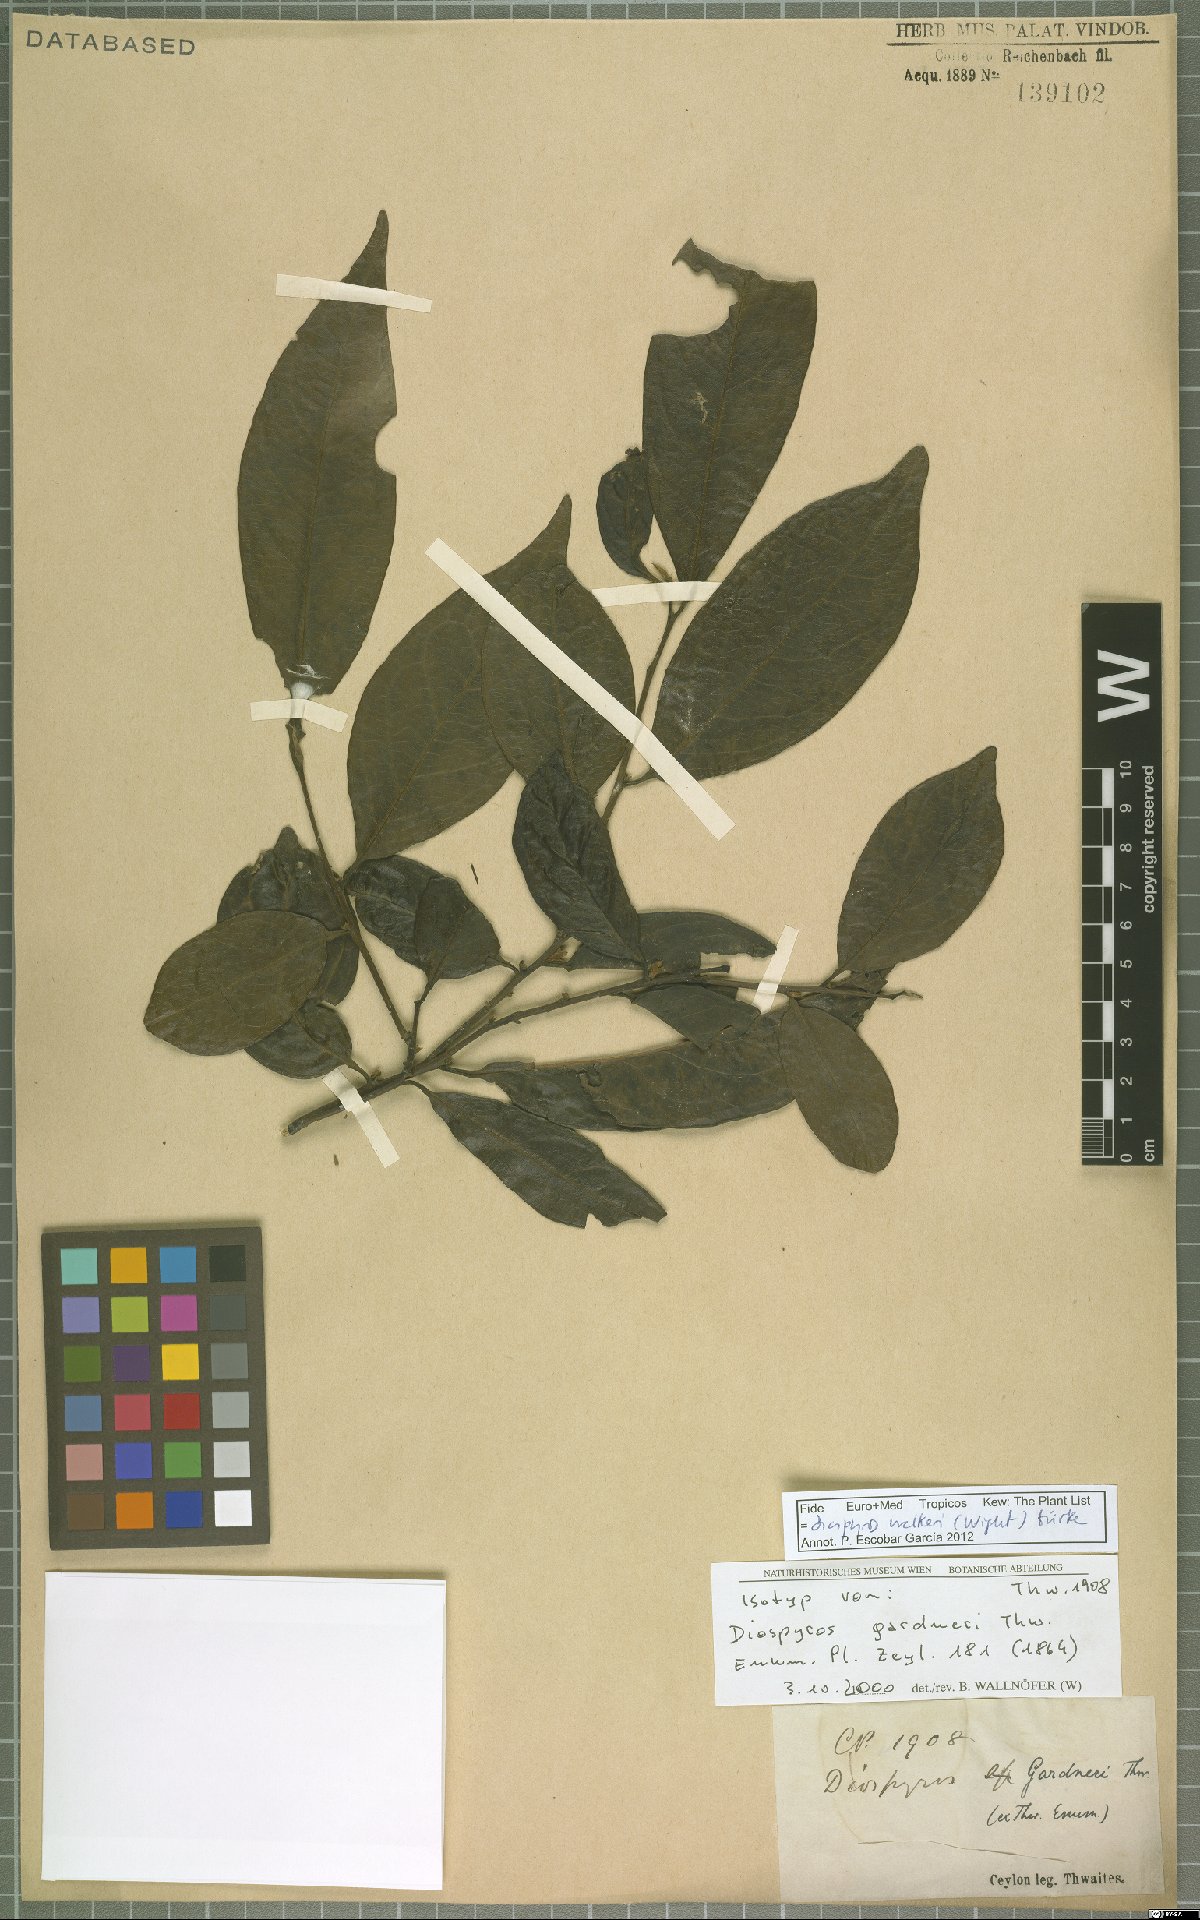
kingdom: Plantae
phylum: Tracheophyta
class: Magnoliopsida
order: Ericales
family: Ebenaceae
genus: Diospyros
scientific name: Diospyros walkeri
